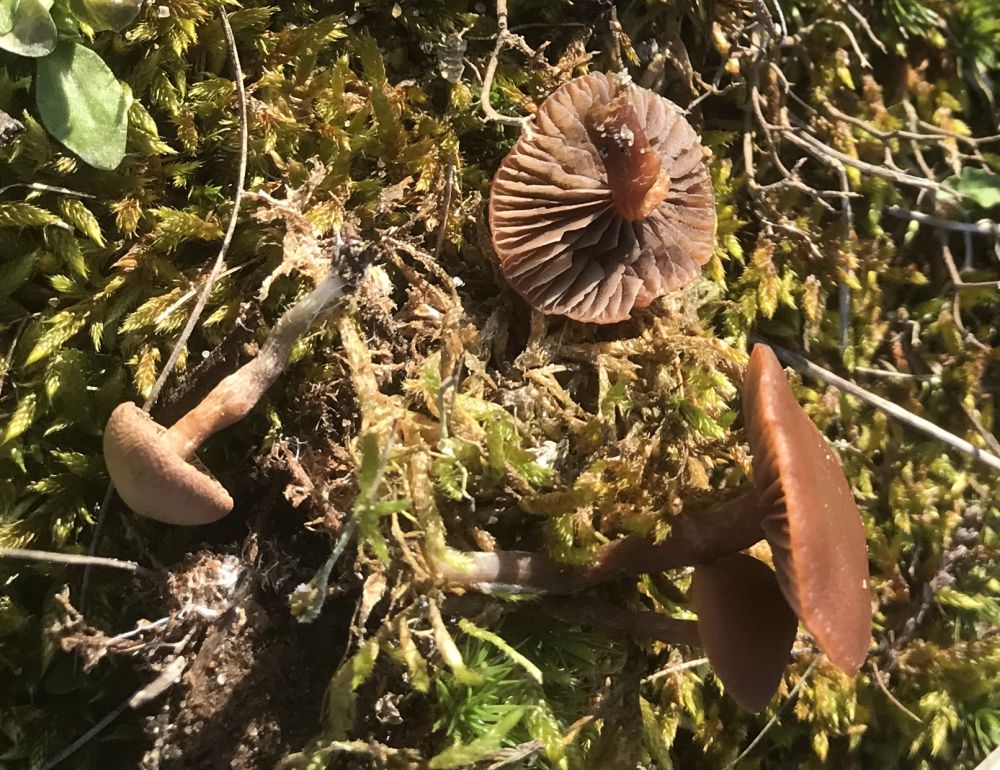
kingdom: Fungi
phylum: Basidiomycota
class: Agaricomycetes
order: Agaricales
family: Strophariaceae
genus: Deconica
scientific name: Deconica
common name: stråhat
